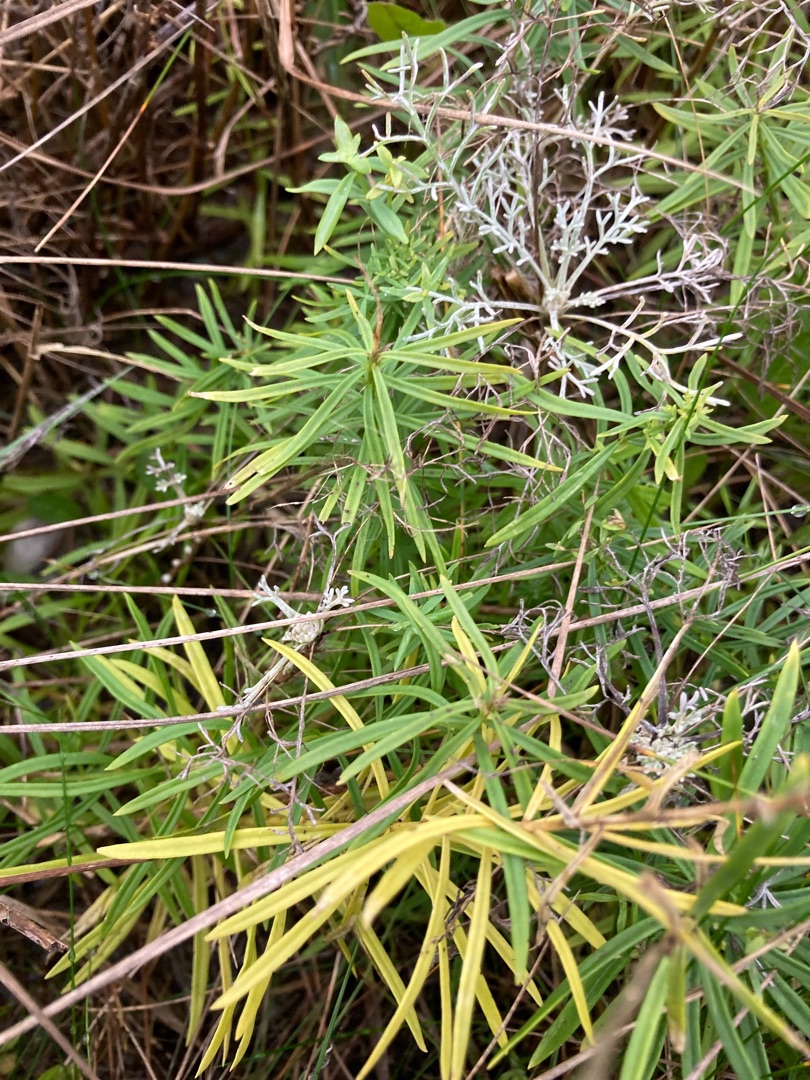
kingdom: Plantae
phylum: Tracheophyta
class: Magnoliopsida
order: Lamiales
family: Plantaginaceae
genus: Linaria
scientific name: Linaria vulgaris
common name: Almindelig torskemund
